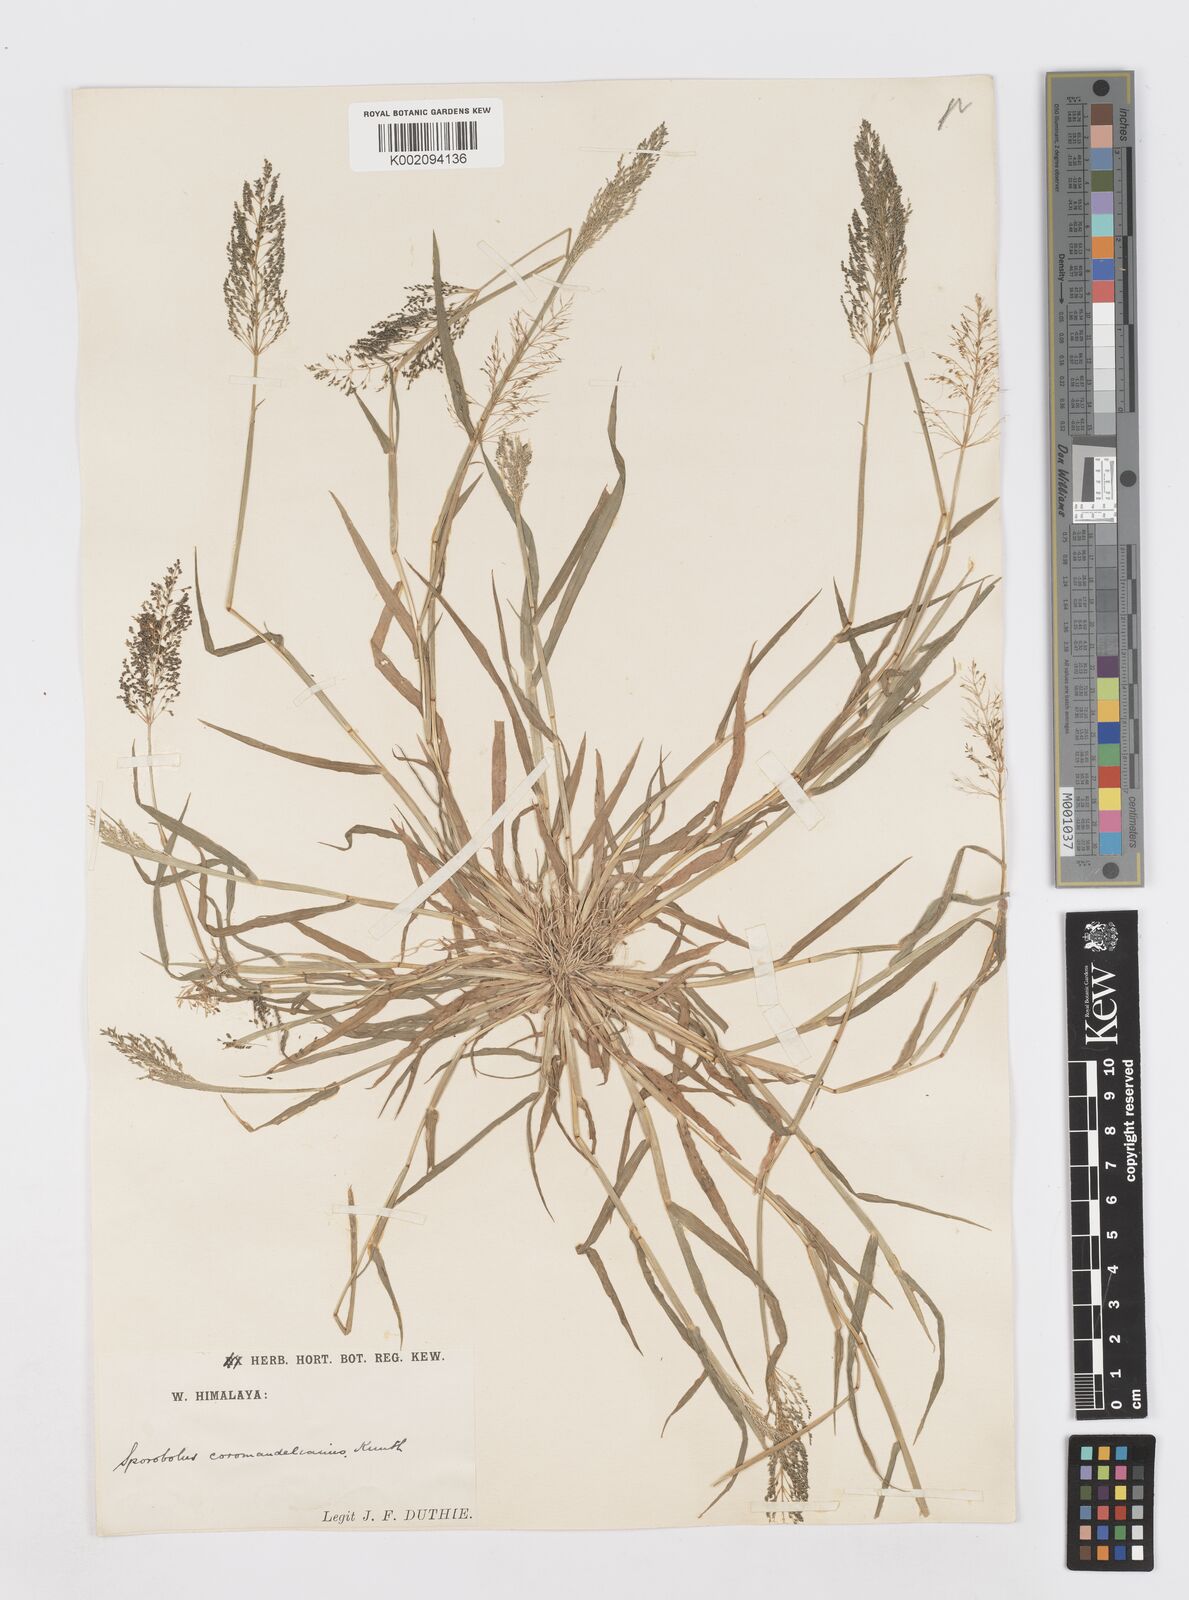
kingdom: Plantae
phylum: Tracheophyta
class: Liliopsida
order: Poales
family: Poaceae
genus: Sporobolus
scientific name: Sporobolus coromandelianus
